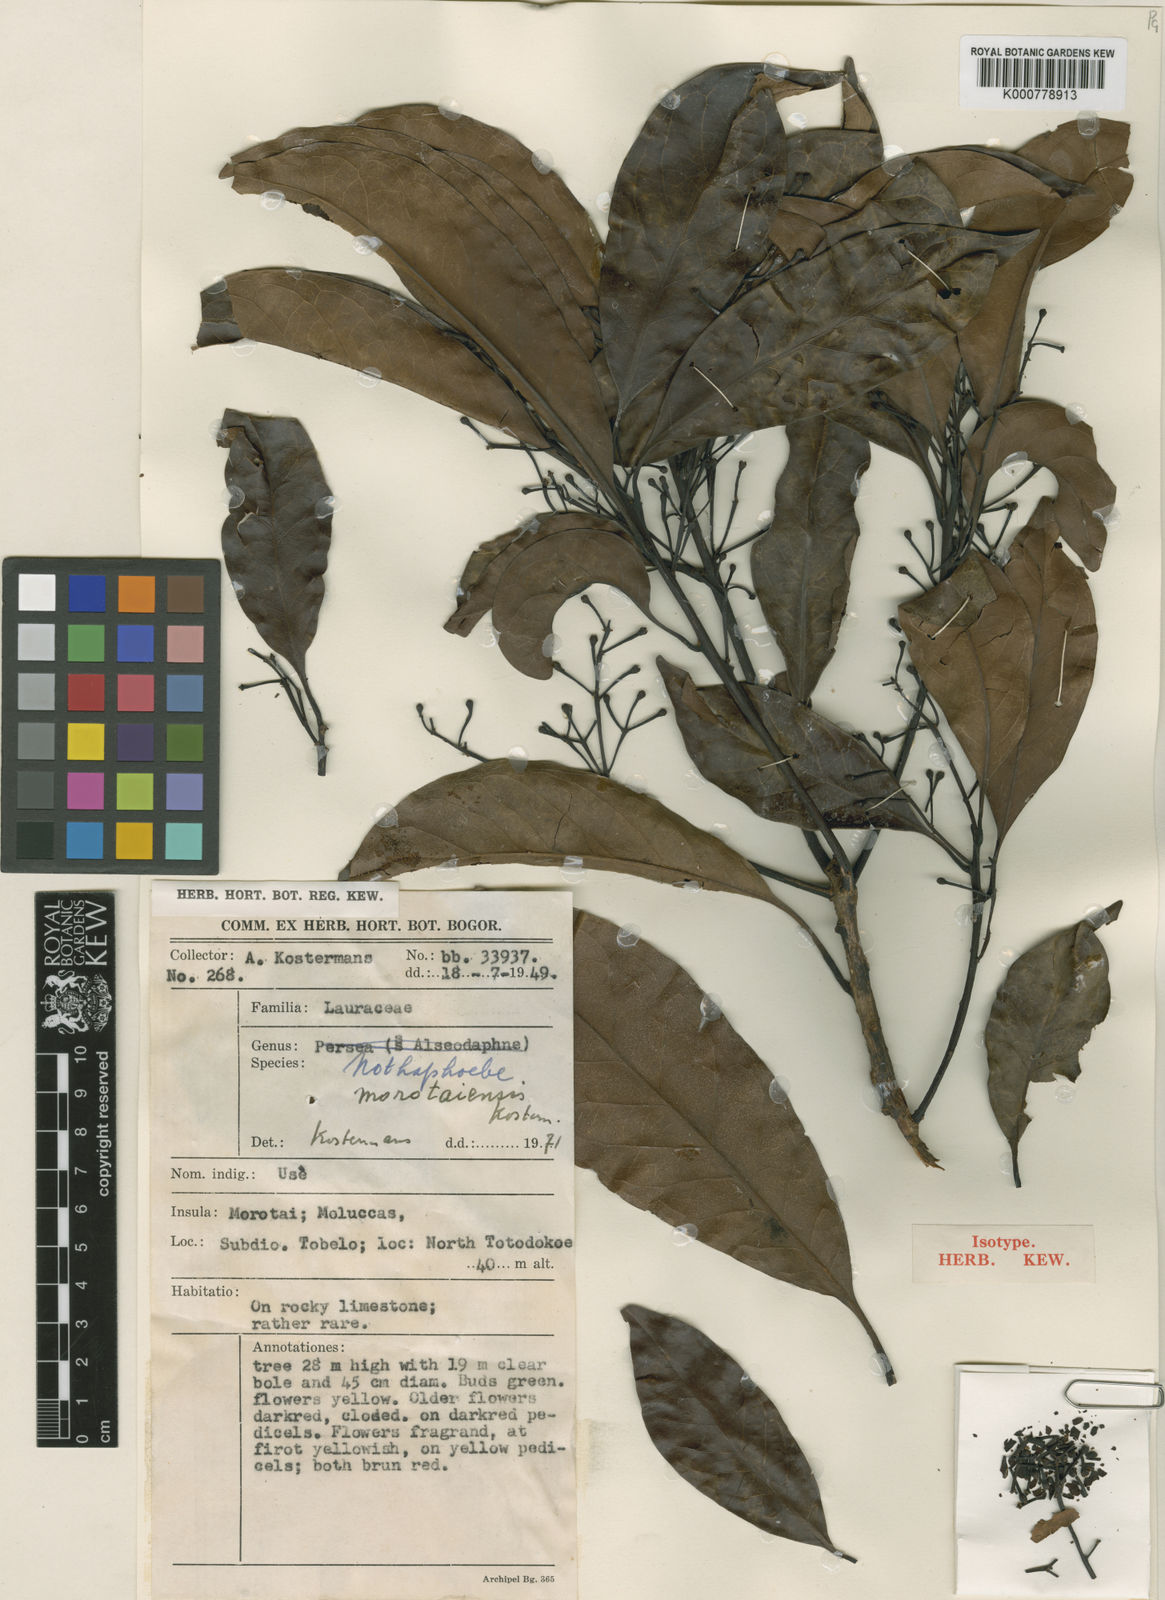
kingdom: Plantae
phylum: Tracheophyta
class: Magnoliopsida
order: Laurales
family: Lauraceae
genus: Nothaphoebe
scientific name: Nothaphoebe
